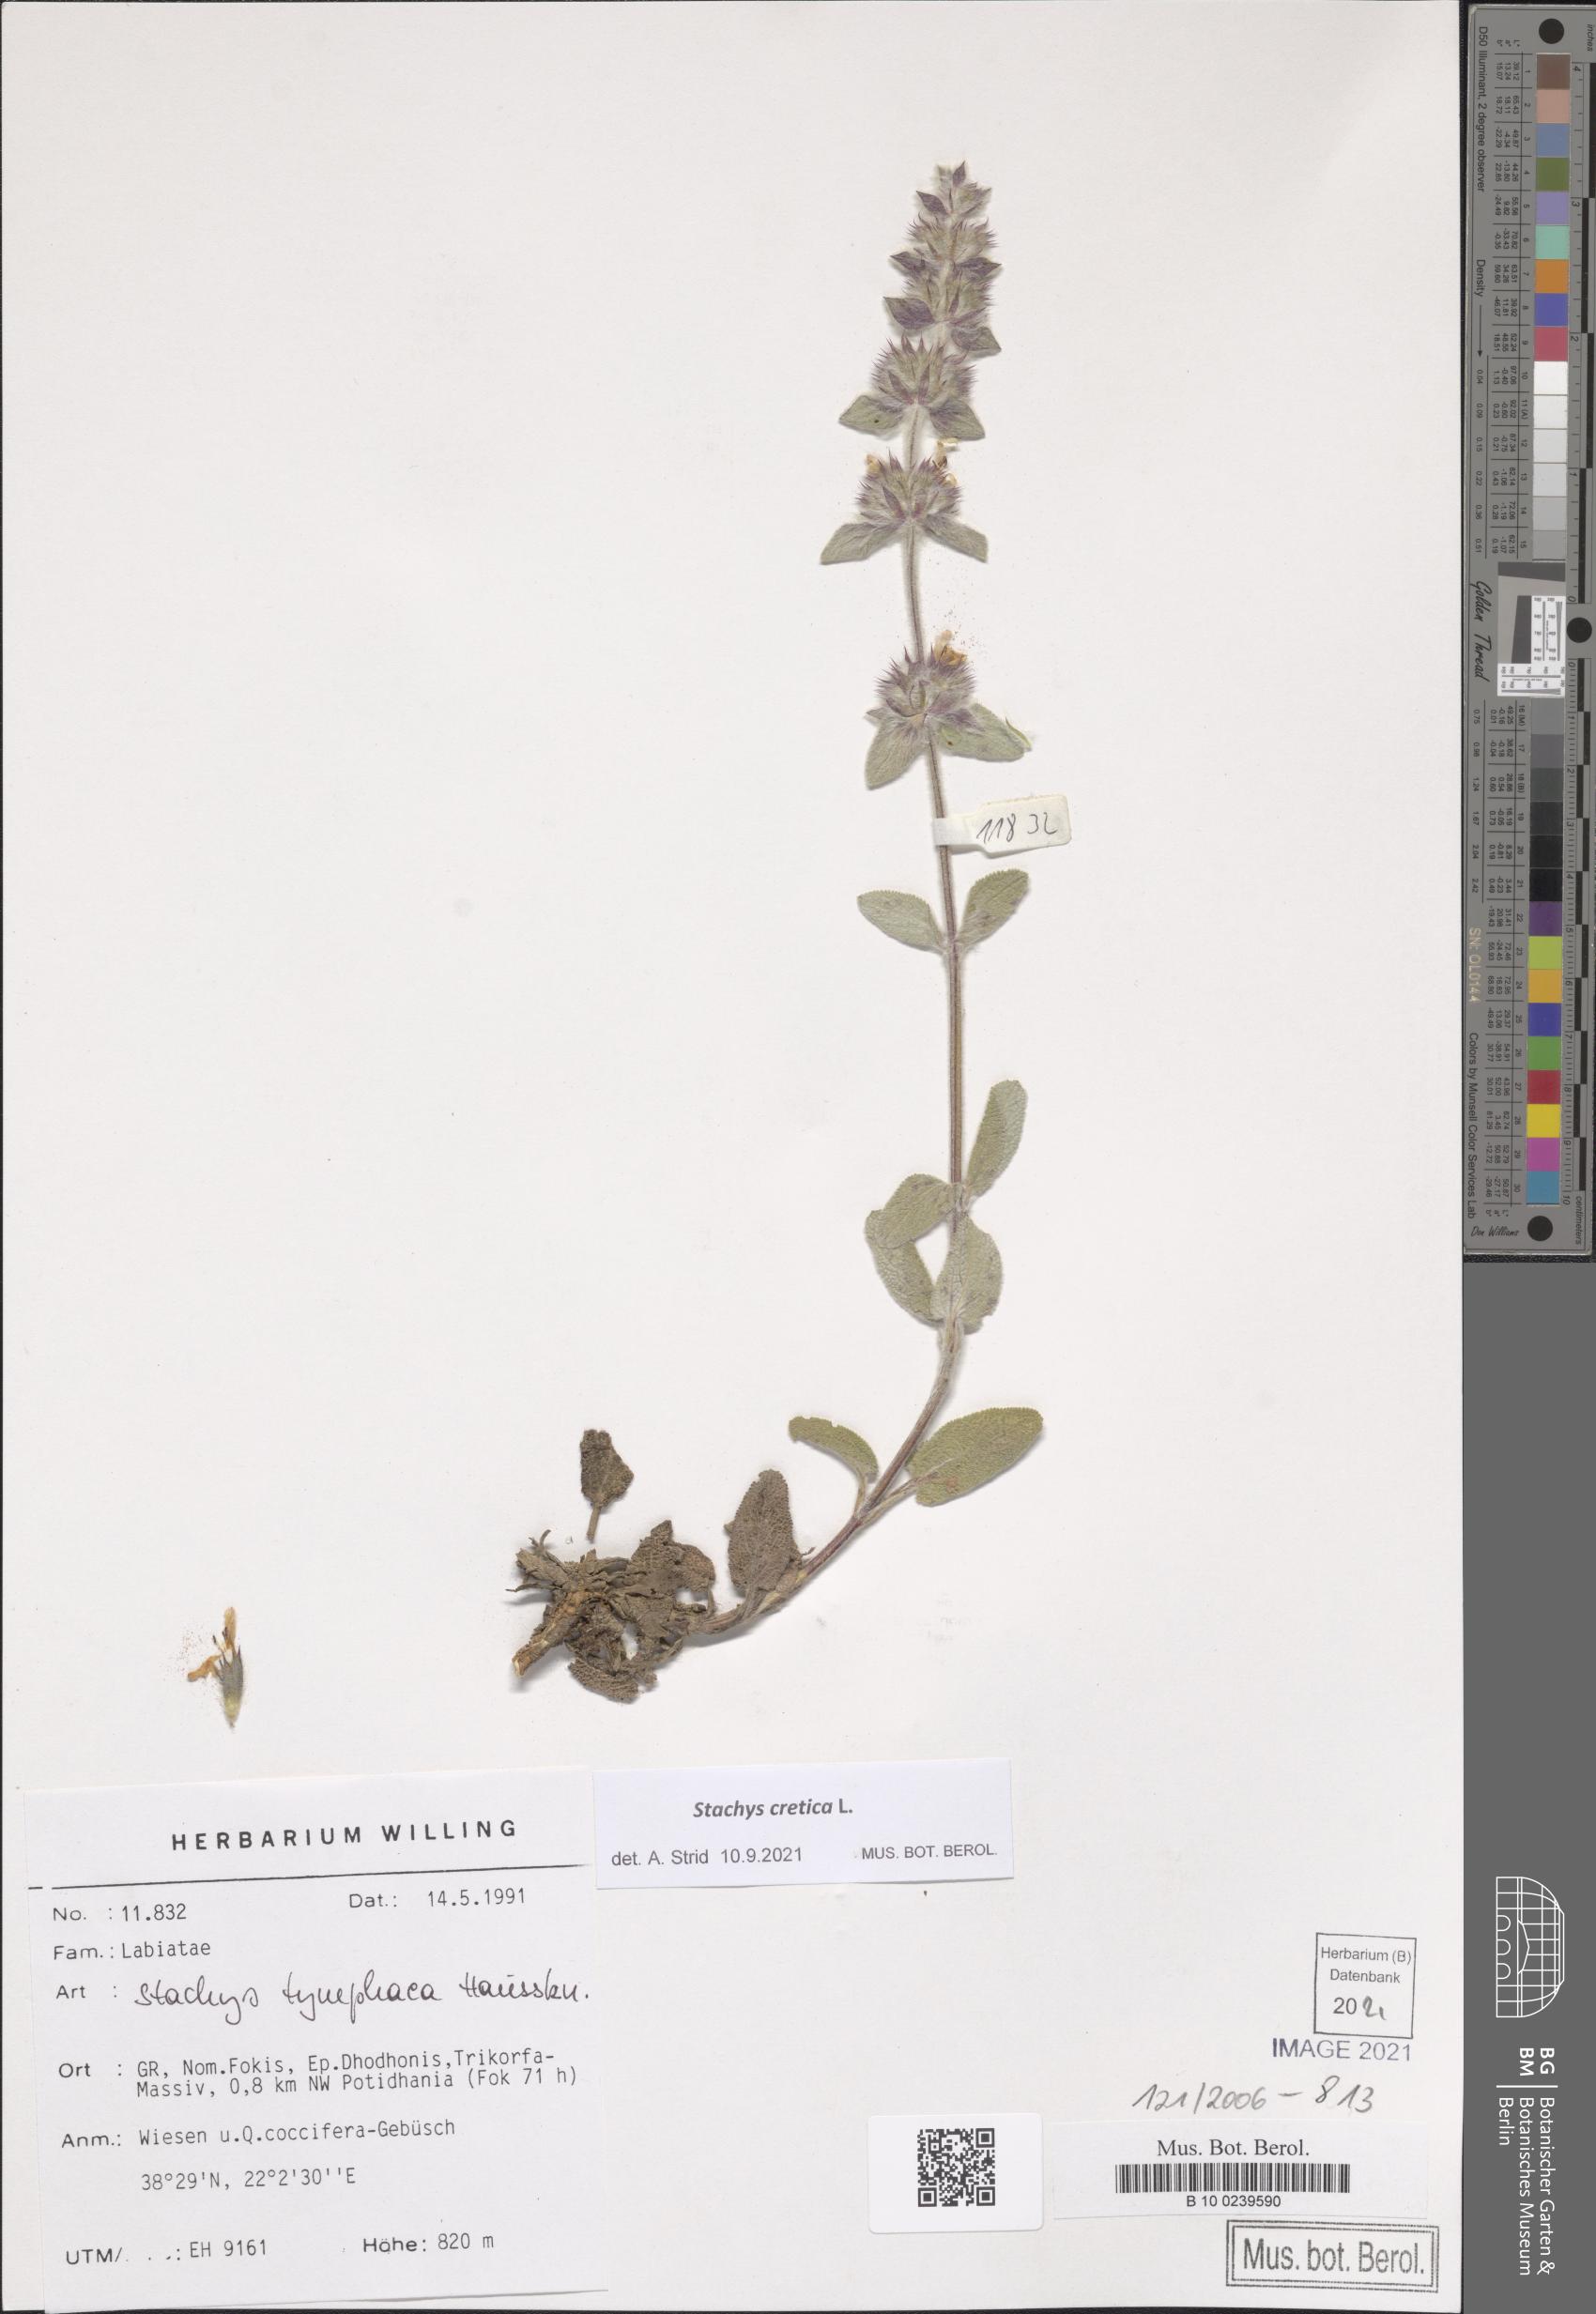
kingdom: Plantae
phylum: Tracheophyta
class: Magnoliopsida
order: Lamiales
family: Lamiaceae
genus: Stachys
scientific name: Stachys cretica
